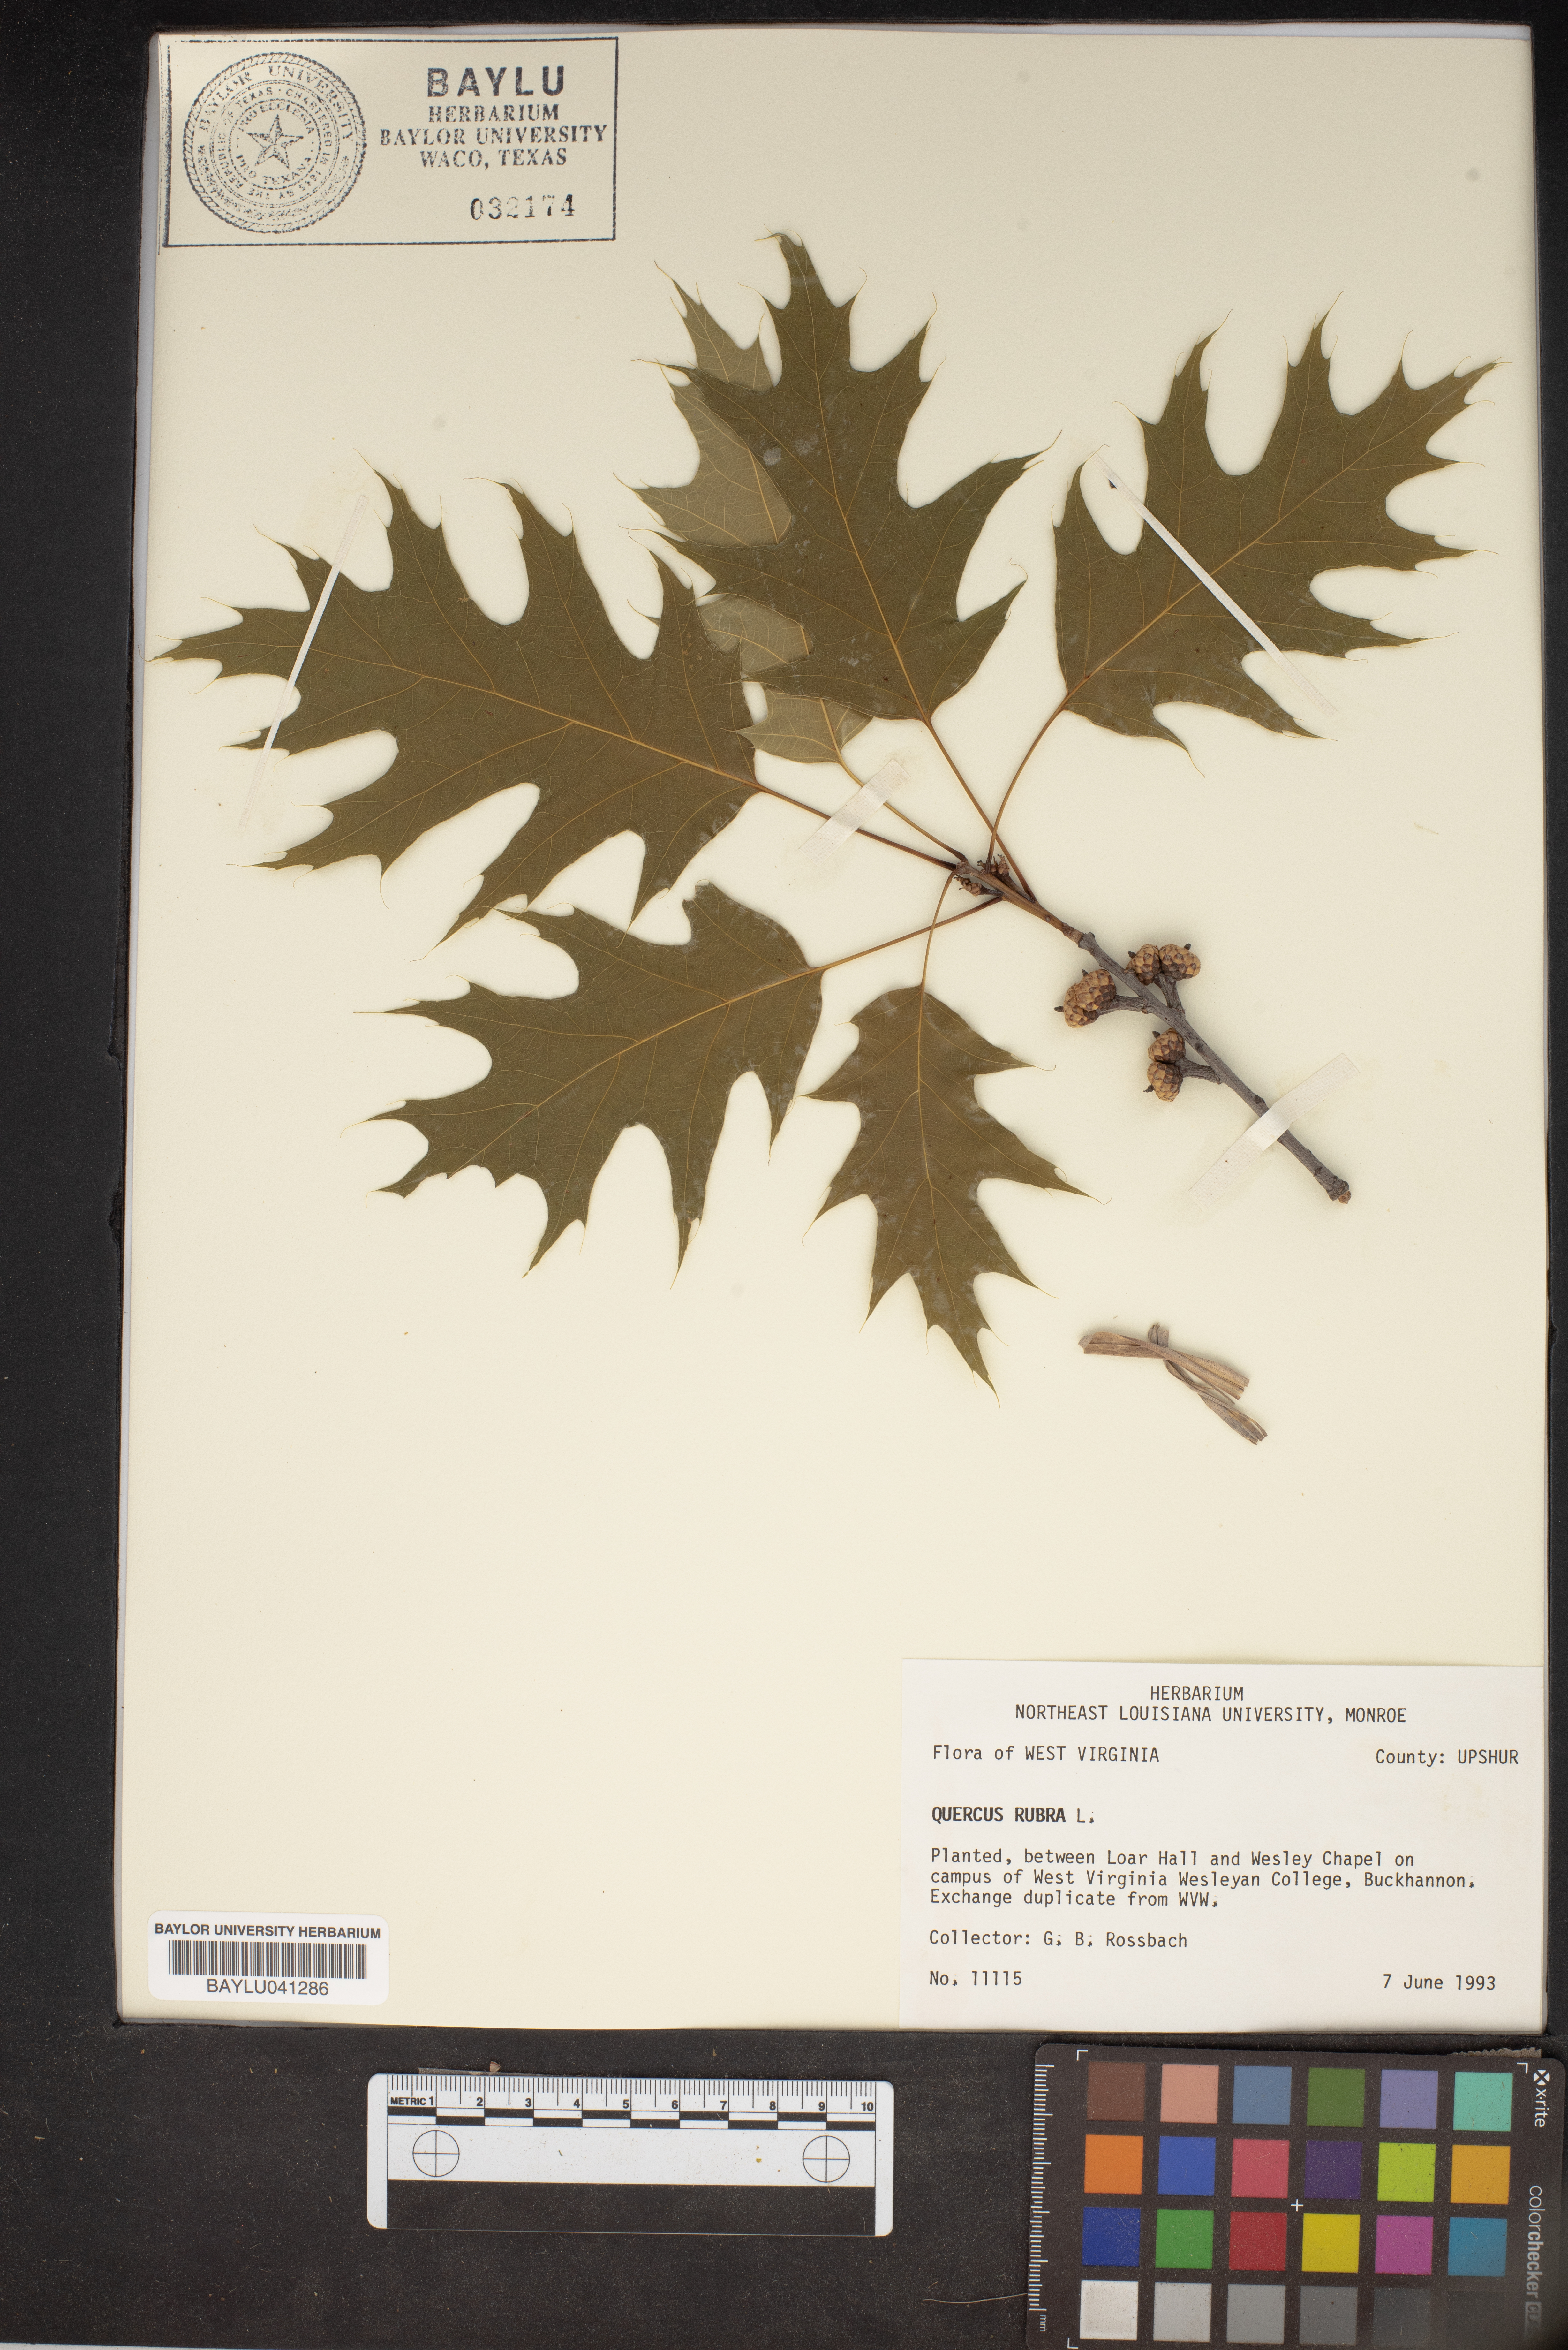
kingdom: Plantae
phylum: Tracheophyta
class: Magnoliopsida
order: Fagales
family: Fagaceae
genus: Quercus
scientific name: Quercus rubra
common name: Red oak
